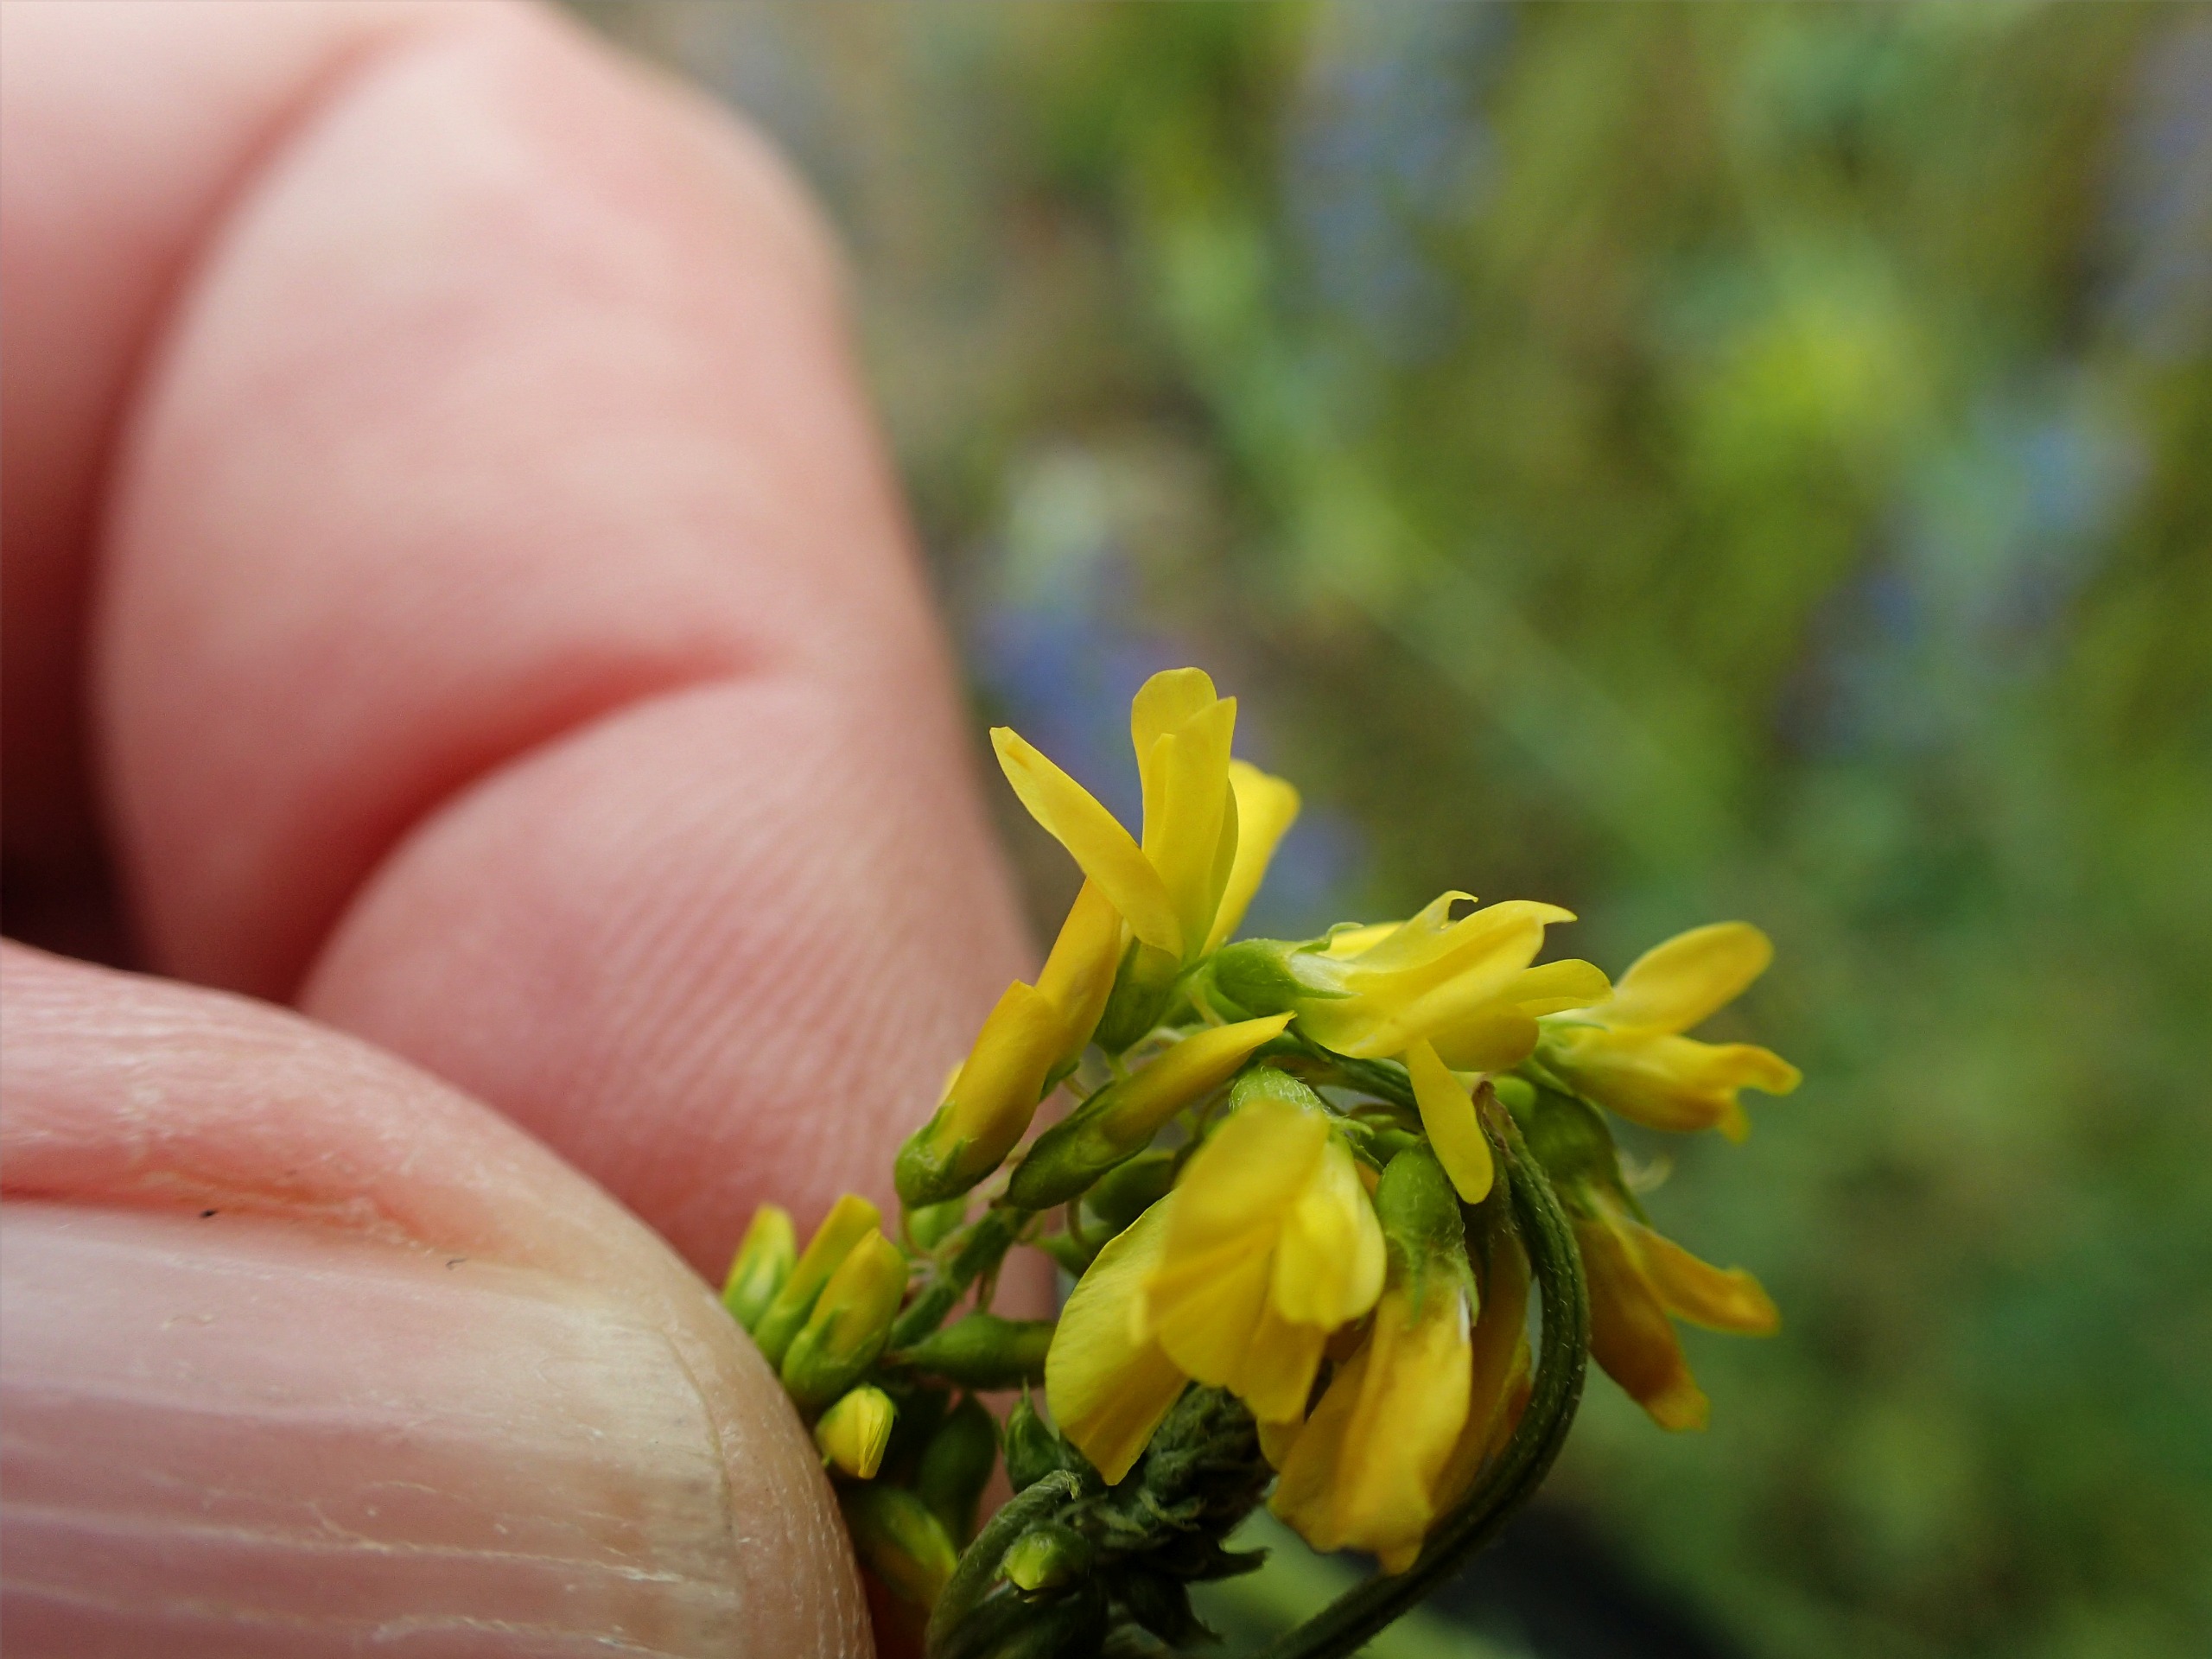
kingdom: Plantae
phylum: Tracheophyta
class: Magnoliopsida
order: Fabales
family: Fabaceae
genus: Melilotus
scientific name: Melilotus officinalis
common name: Mark-stenkløver
